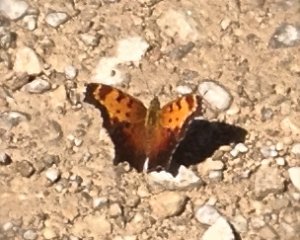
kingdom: Animalia
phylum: Arthropoda
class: Insecta
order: Lepidoptera
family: Nymphalidae
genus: Polygonia
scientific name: Polygonia comma
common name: Eastern Comma
